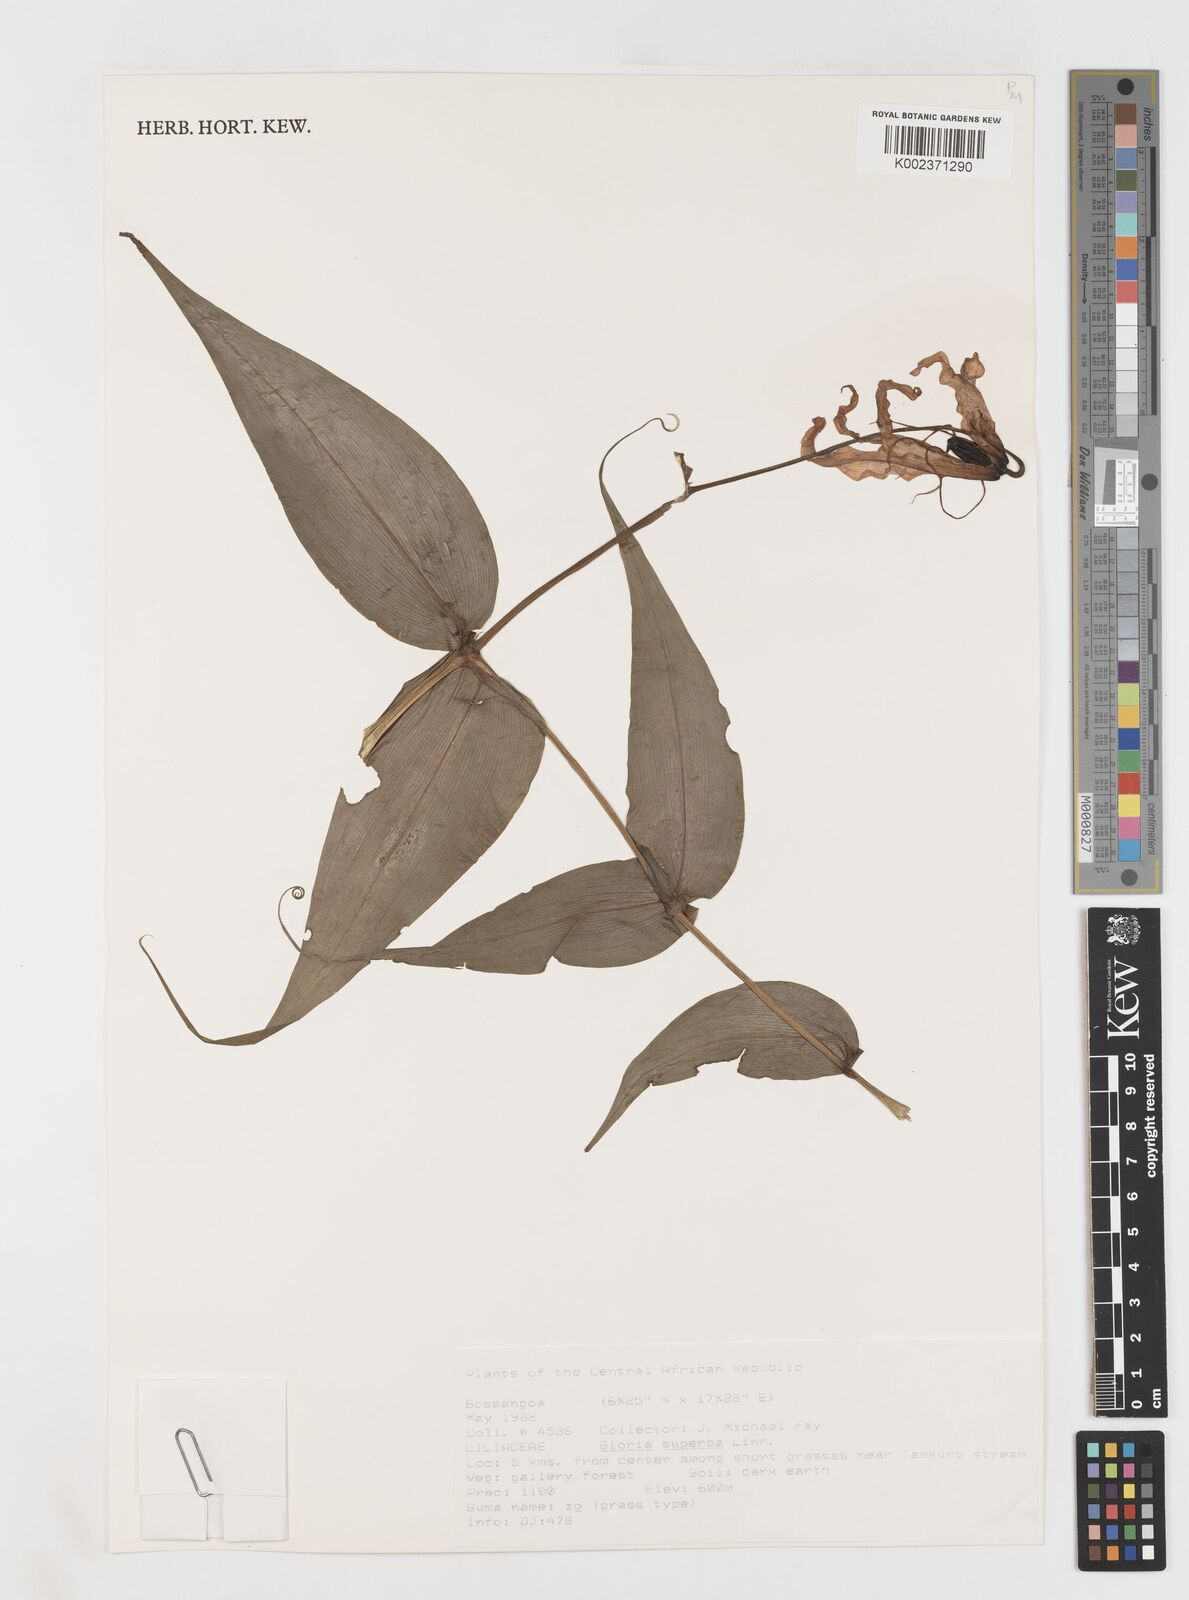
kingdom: Plantae
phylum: Tracheophyta
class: Liliopsida
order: Liliales
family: Colchicaceae
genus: Gloriosa
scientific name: Gloriosa simplex
